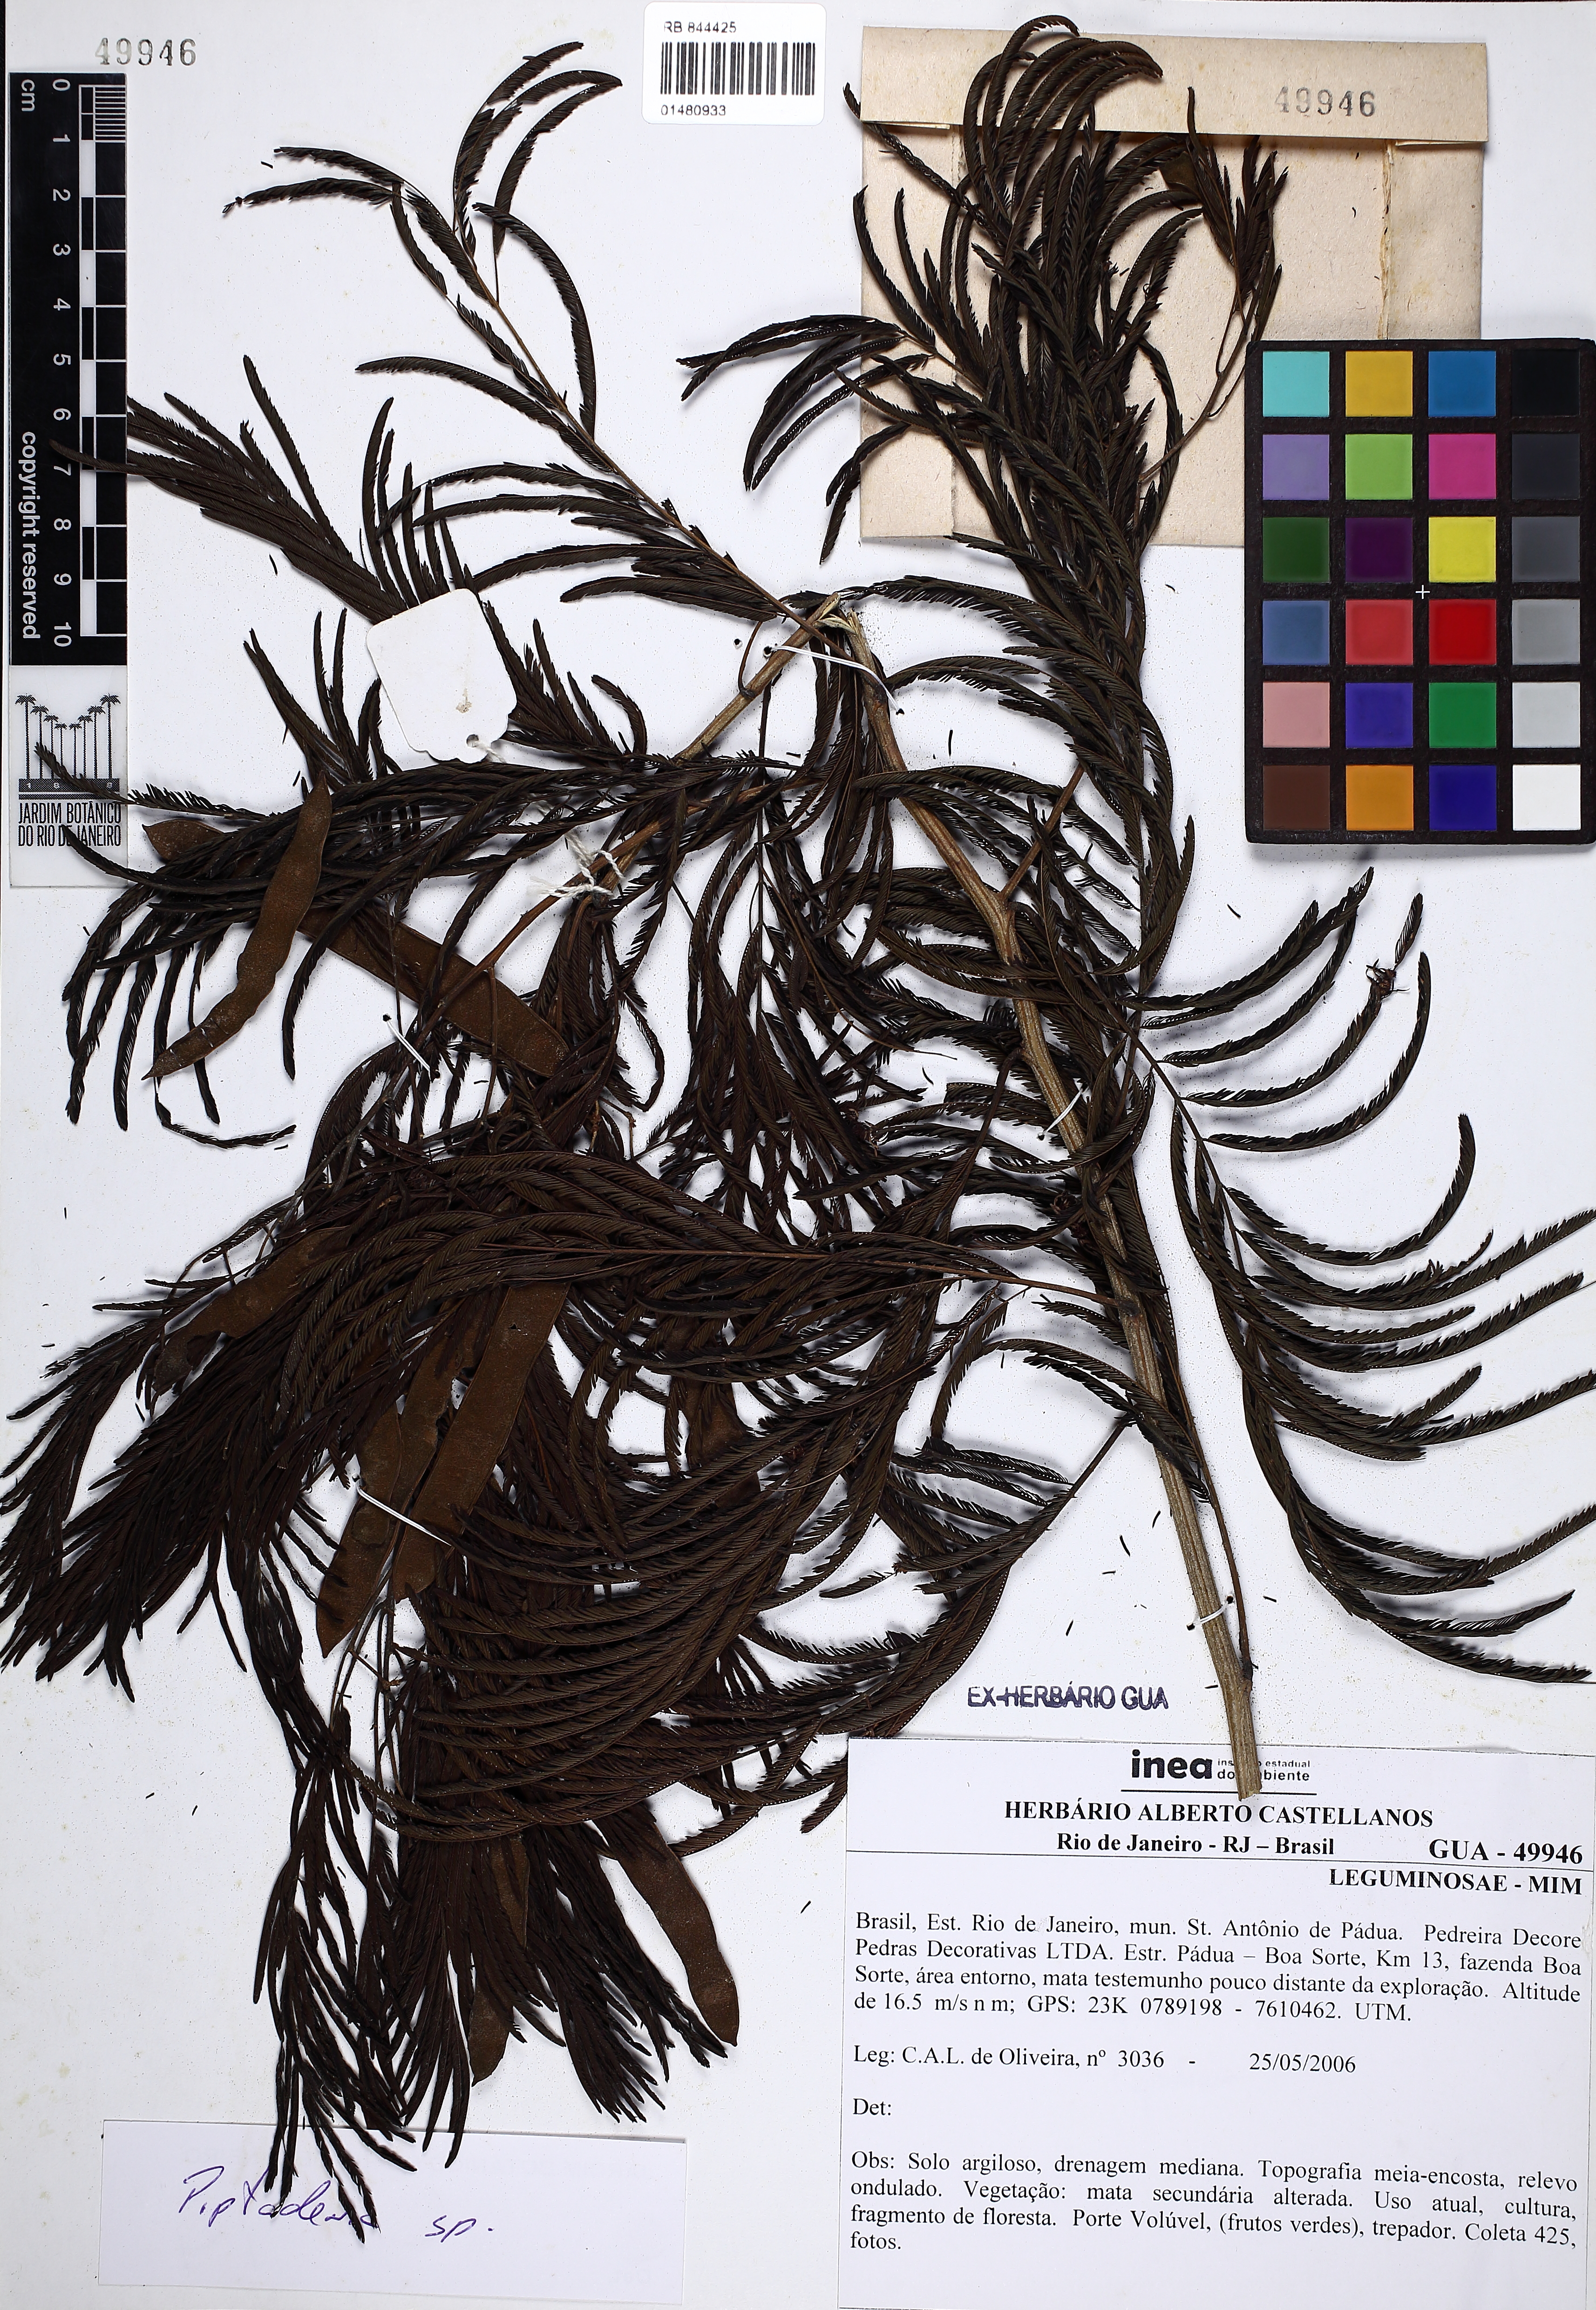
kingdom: Plantae
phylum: Tracheophyta
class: Magnoliopsida
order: Fabales
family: Fabaceae
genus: Piptadenia
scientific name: Piptadenia
